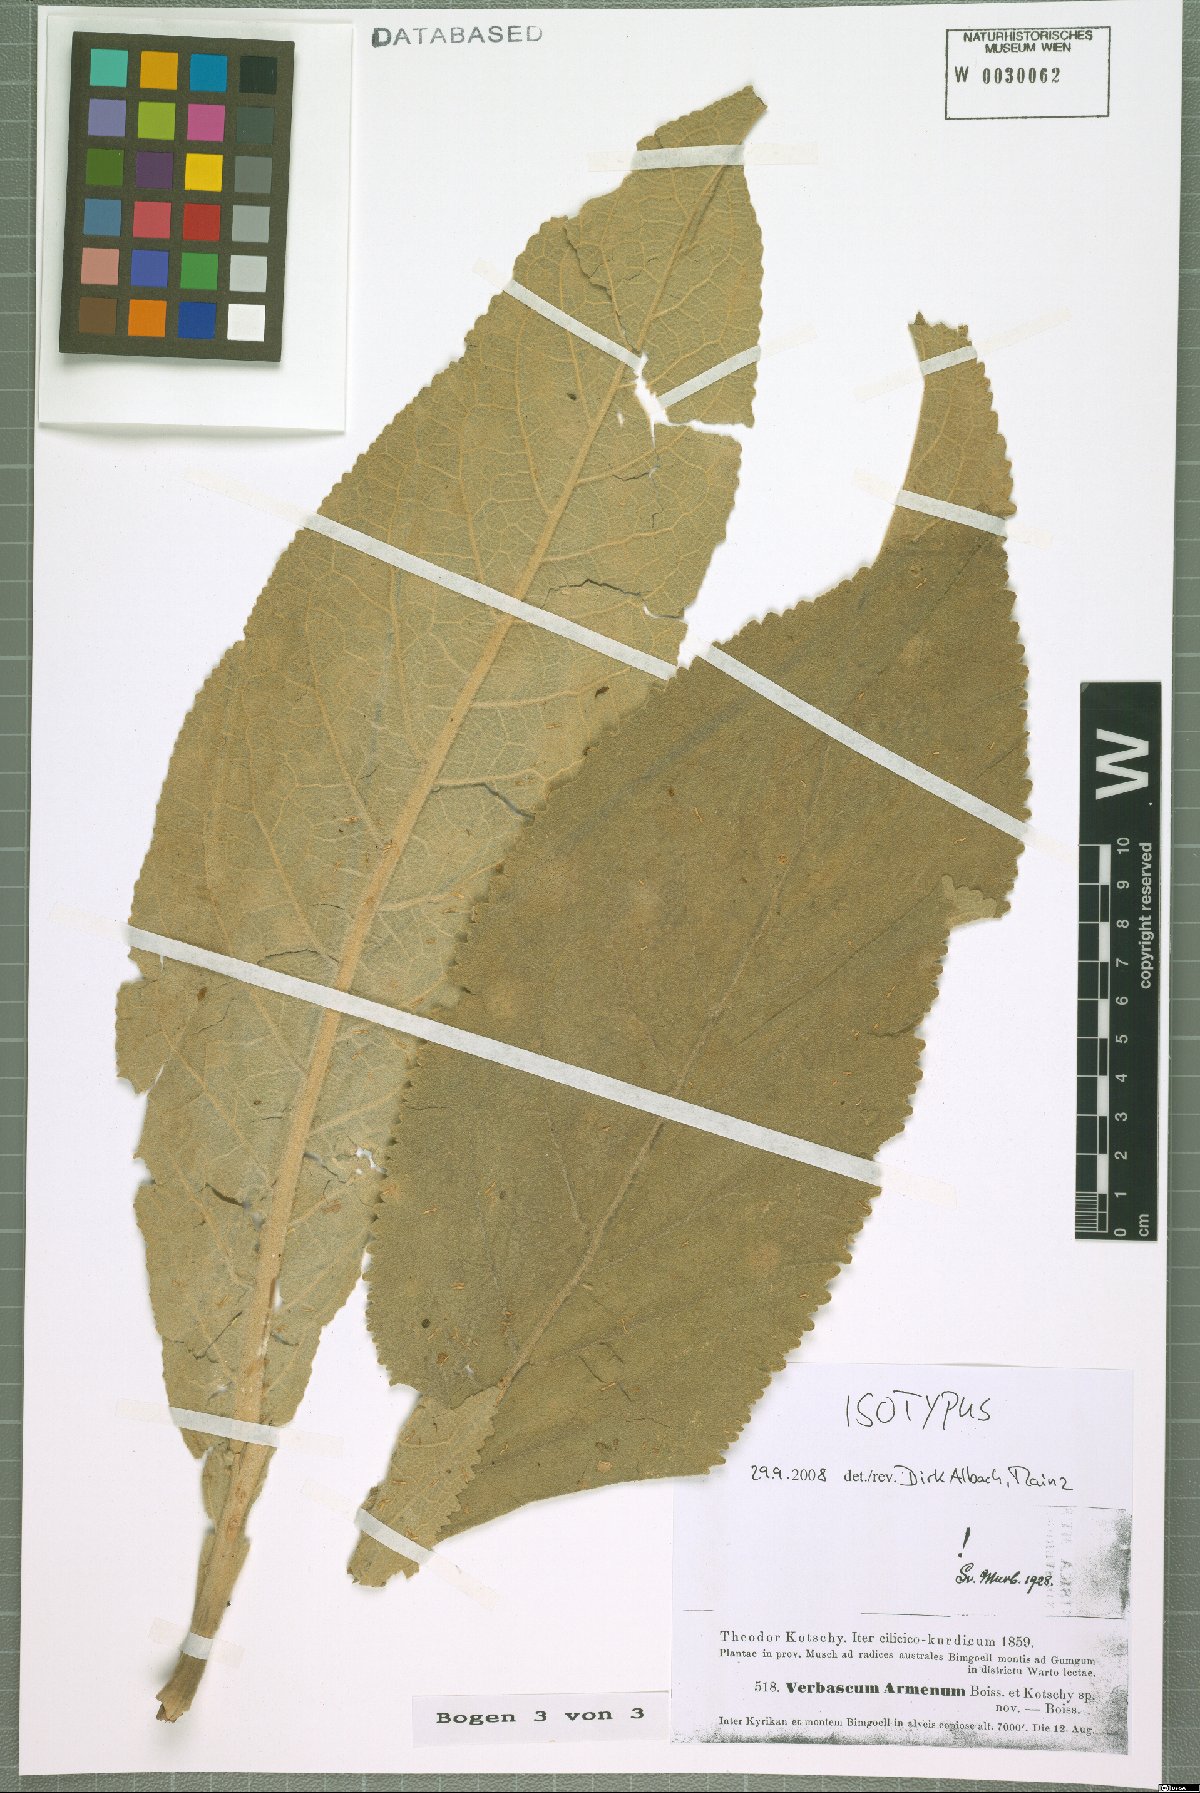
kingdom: Plantae
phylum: Tracheophyta
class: Magnoliopsida
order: Lamiales
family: Scrophulariaceae
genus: Verbascum
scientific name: Verbascum armenum
